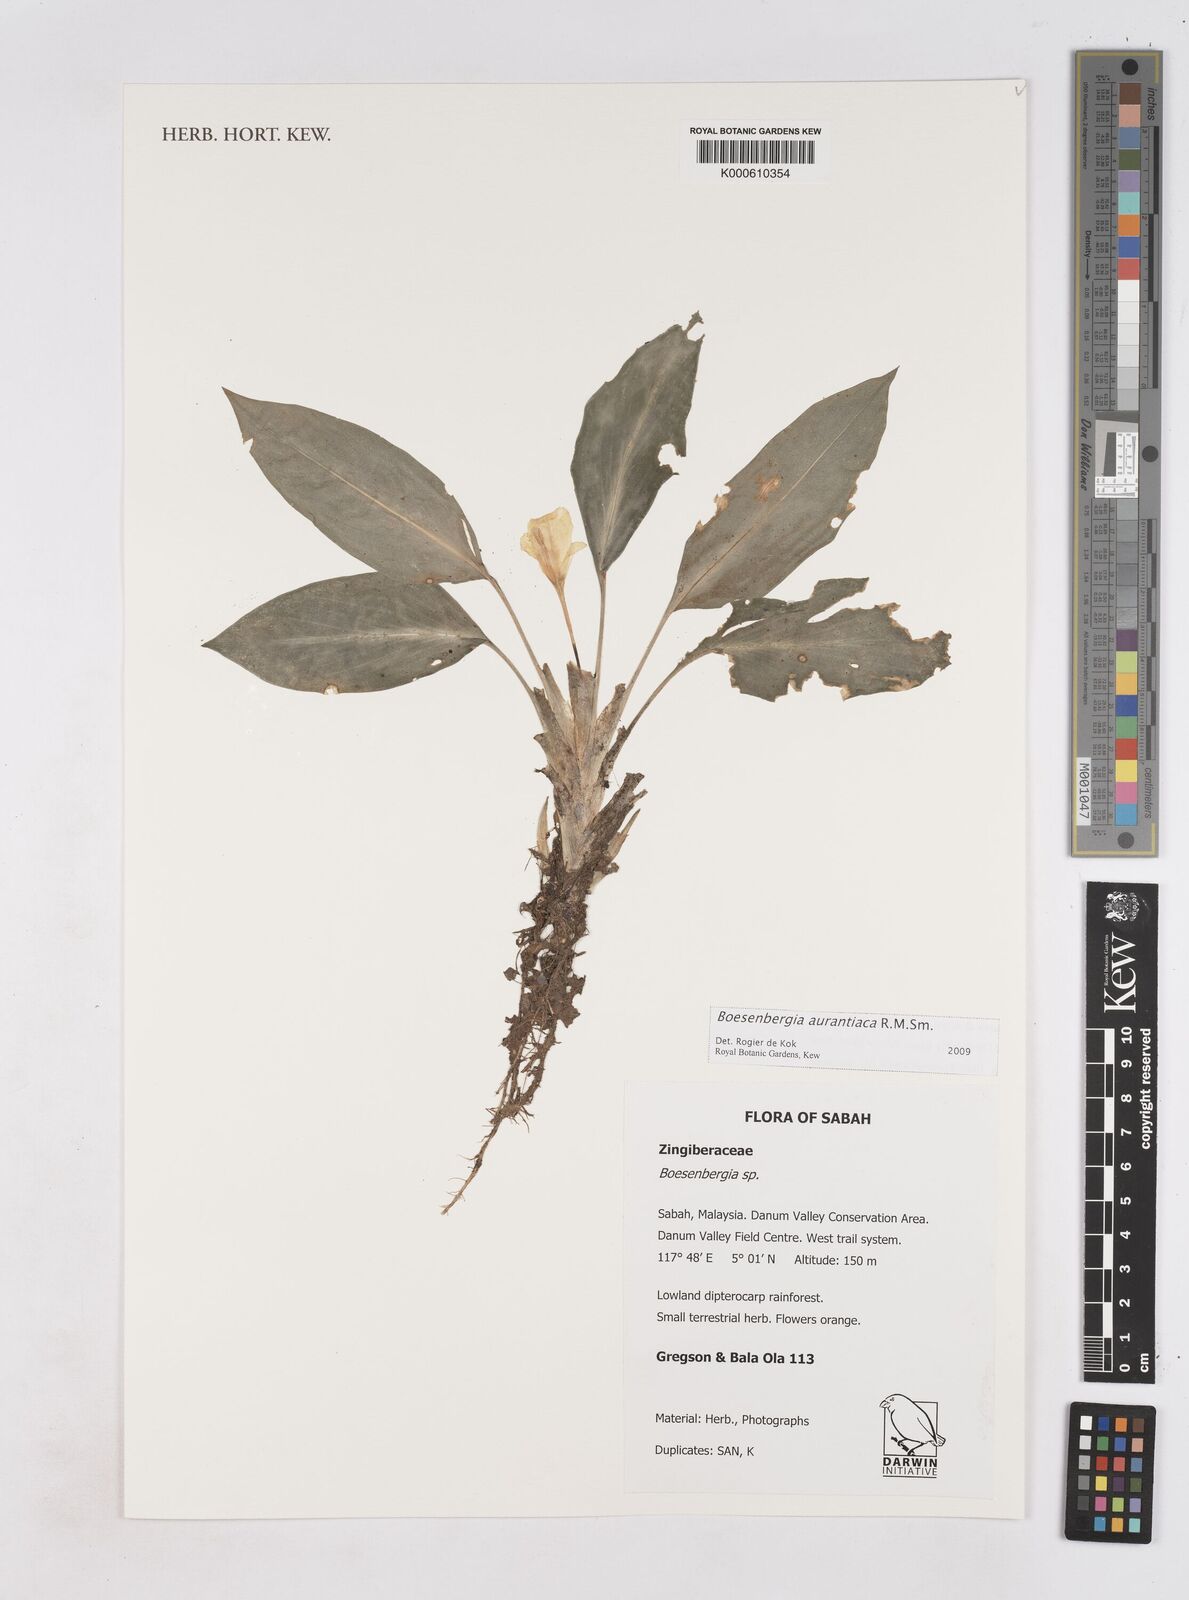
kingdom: Plantae
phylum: Tracheophyta
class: Liliopsida
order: Zingiberales
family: Zingiberaceae
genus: Boesenbergia
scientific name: Boesenbergia aurantiaca
